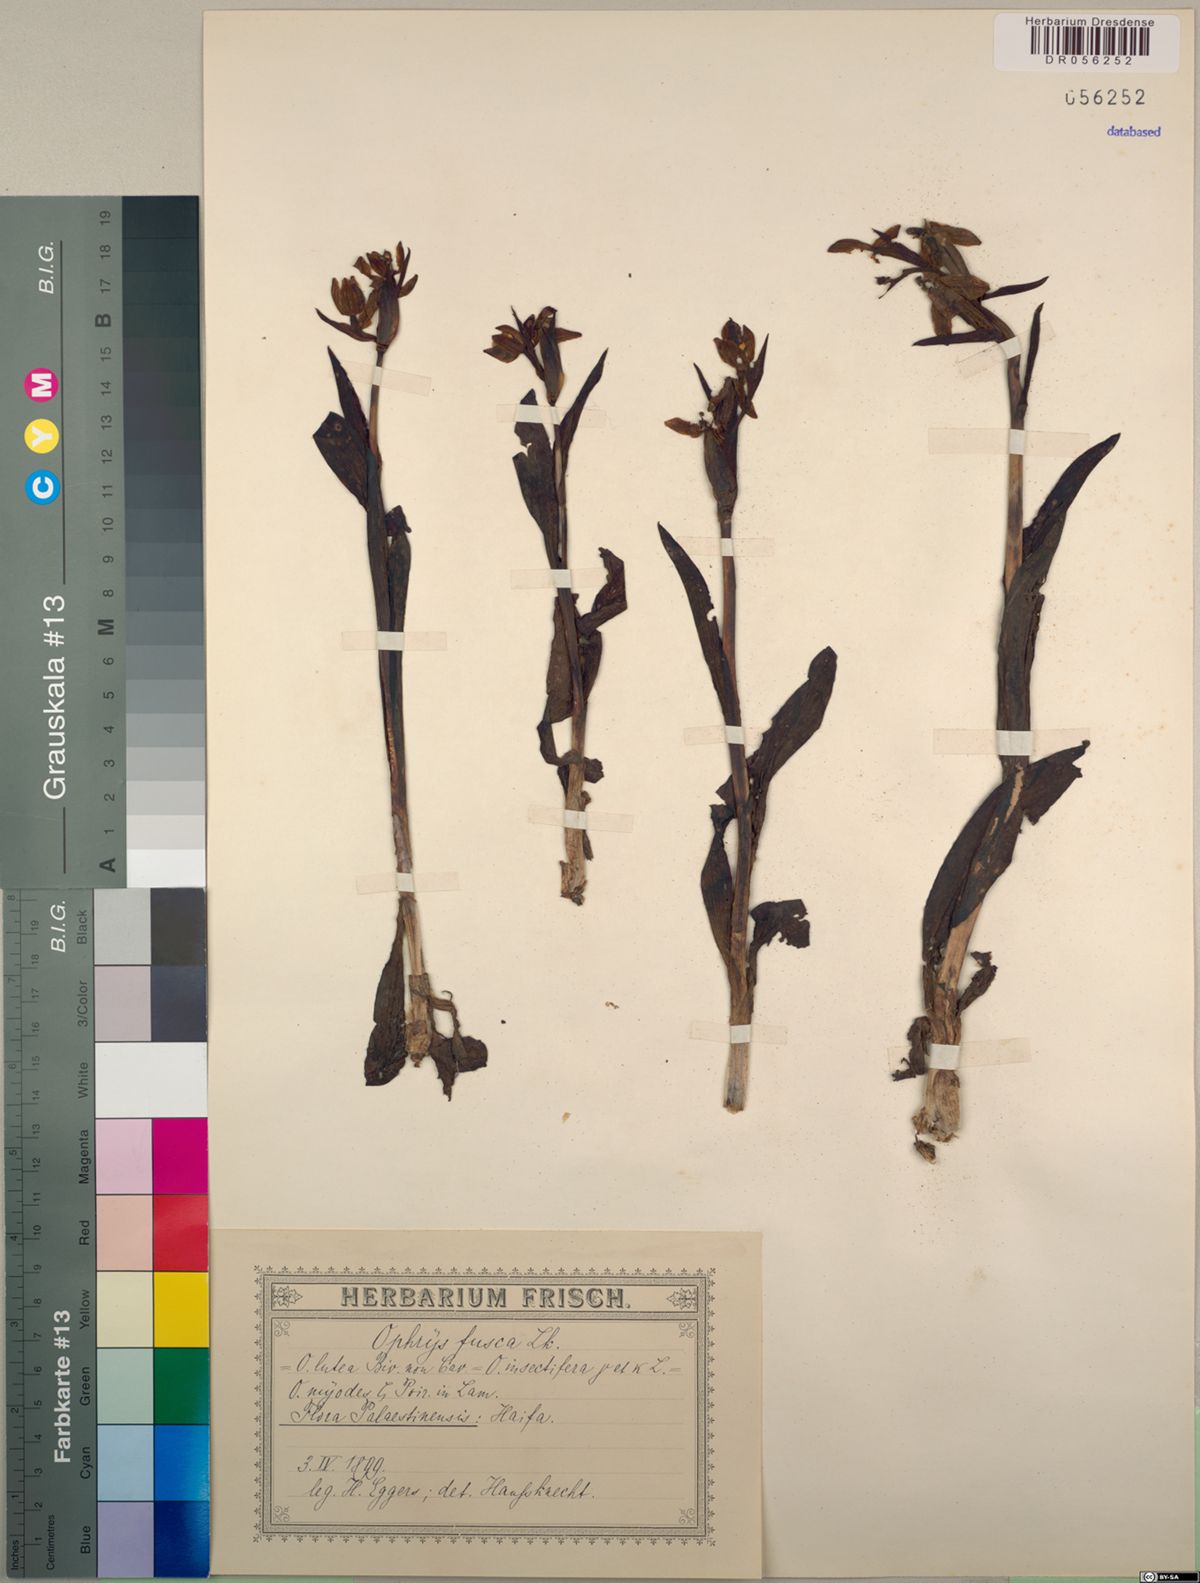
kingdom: Plantae
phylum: Tracheophyta
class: Liliopsida
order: Asparagales
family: Orchidaceae
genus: Ophrys
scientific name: Ophrys fusca
